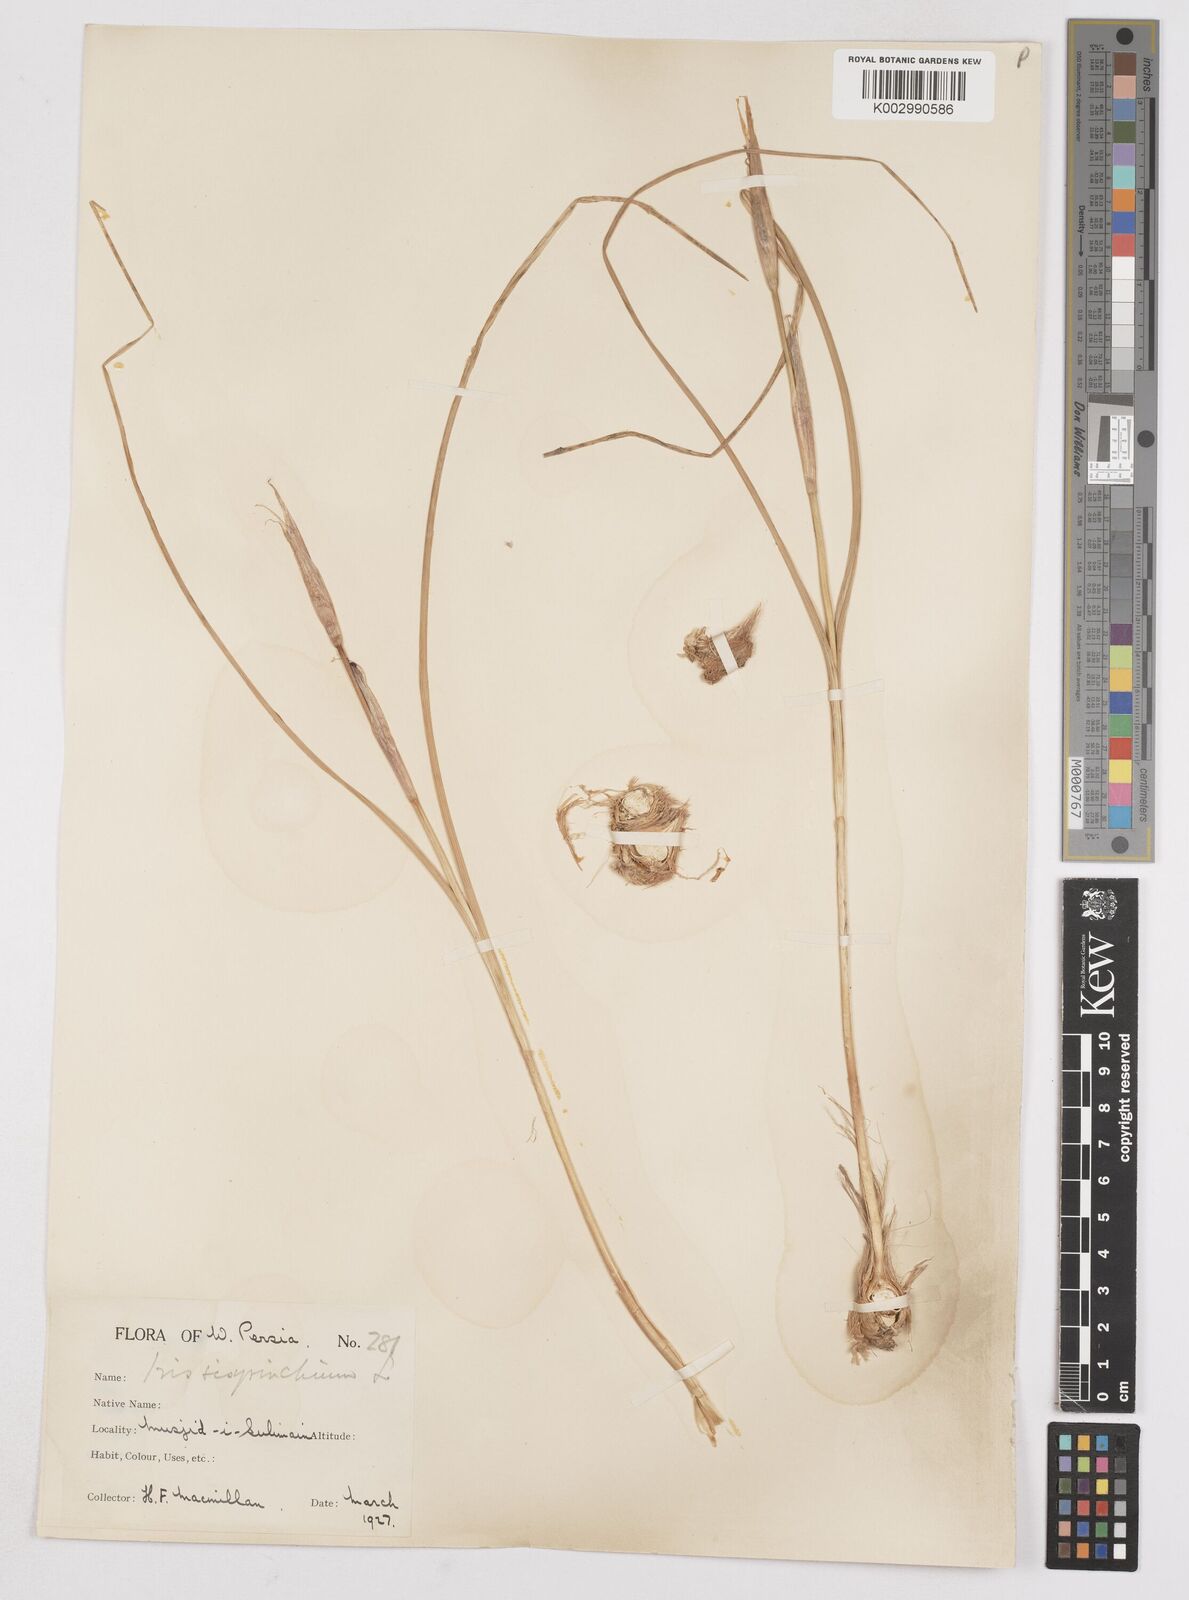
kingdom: Plantae
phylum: Tracheophyta
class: Liliopsida
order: Asparagales
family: Iridaceae
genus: Moraea
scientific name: Moraea sisyrinchium
